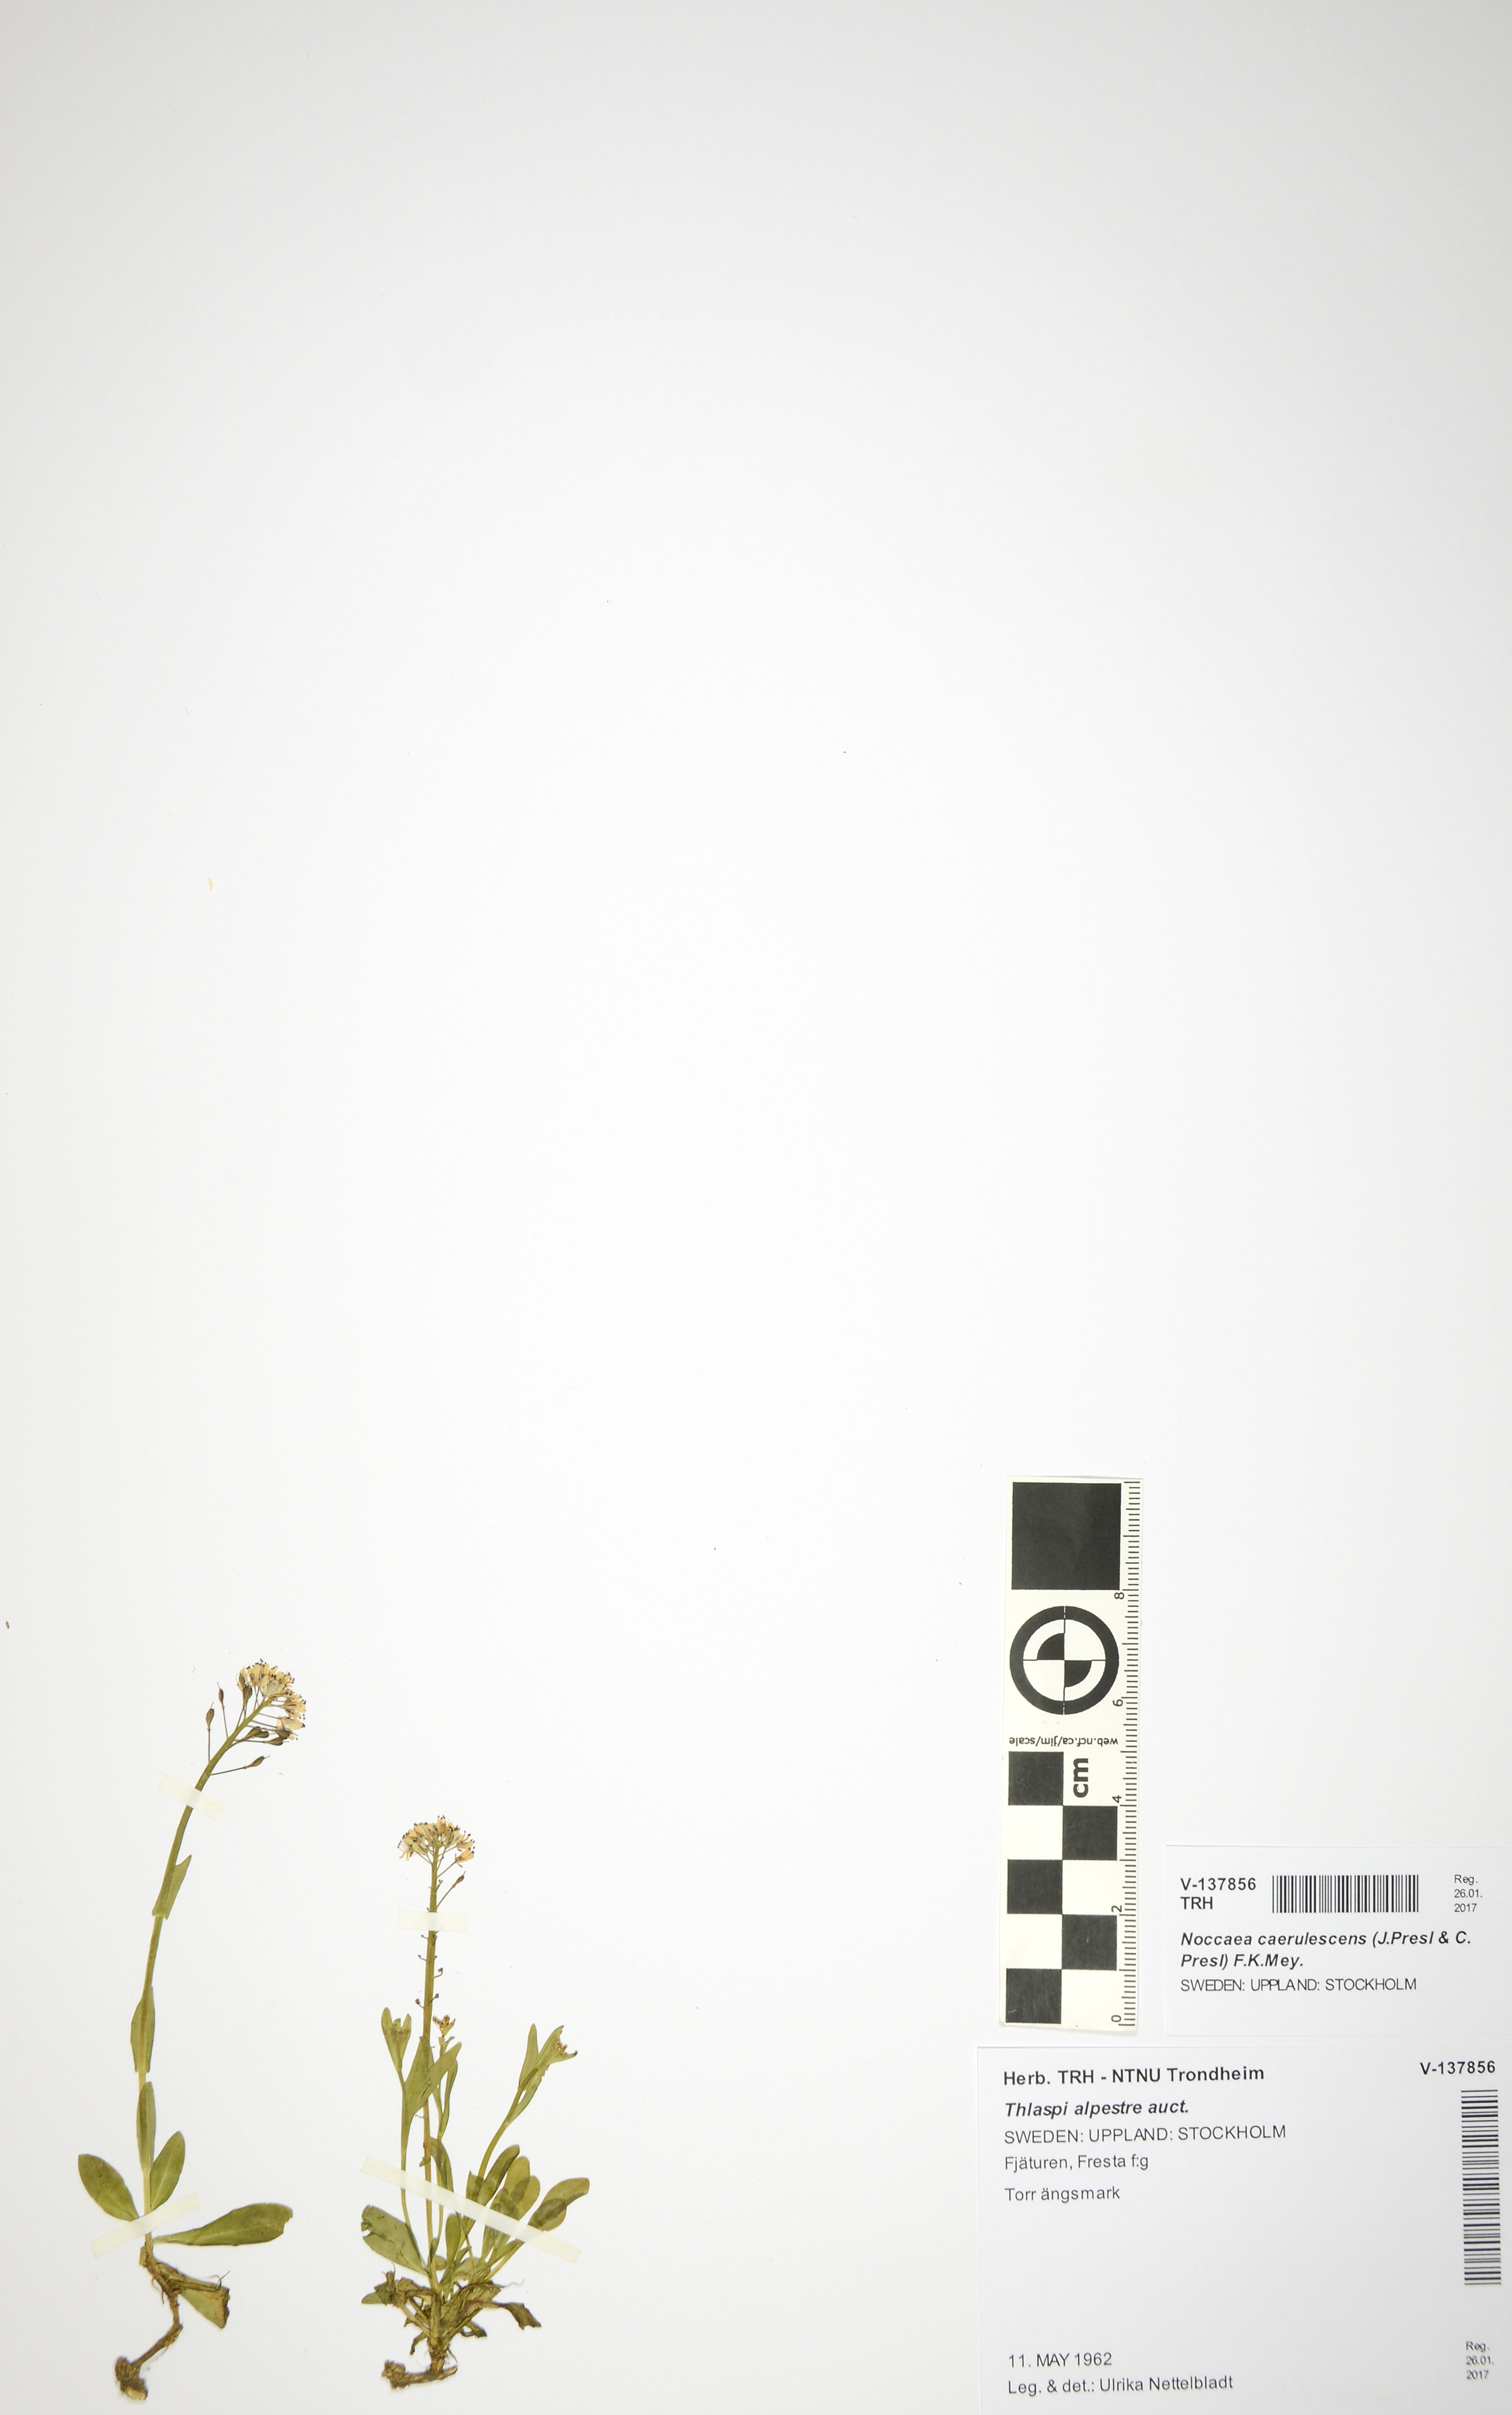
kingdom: Plantae
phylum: Tracheophyta
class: Magnoliopsida
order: Brassicales
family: Brassicaceae
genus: Noccaea
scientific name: Noccaea caerulescens
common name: Alpine pennycress
